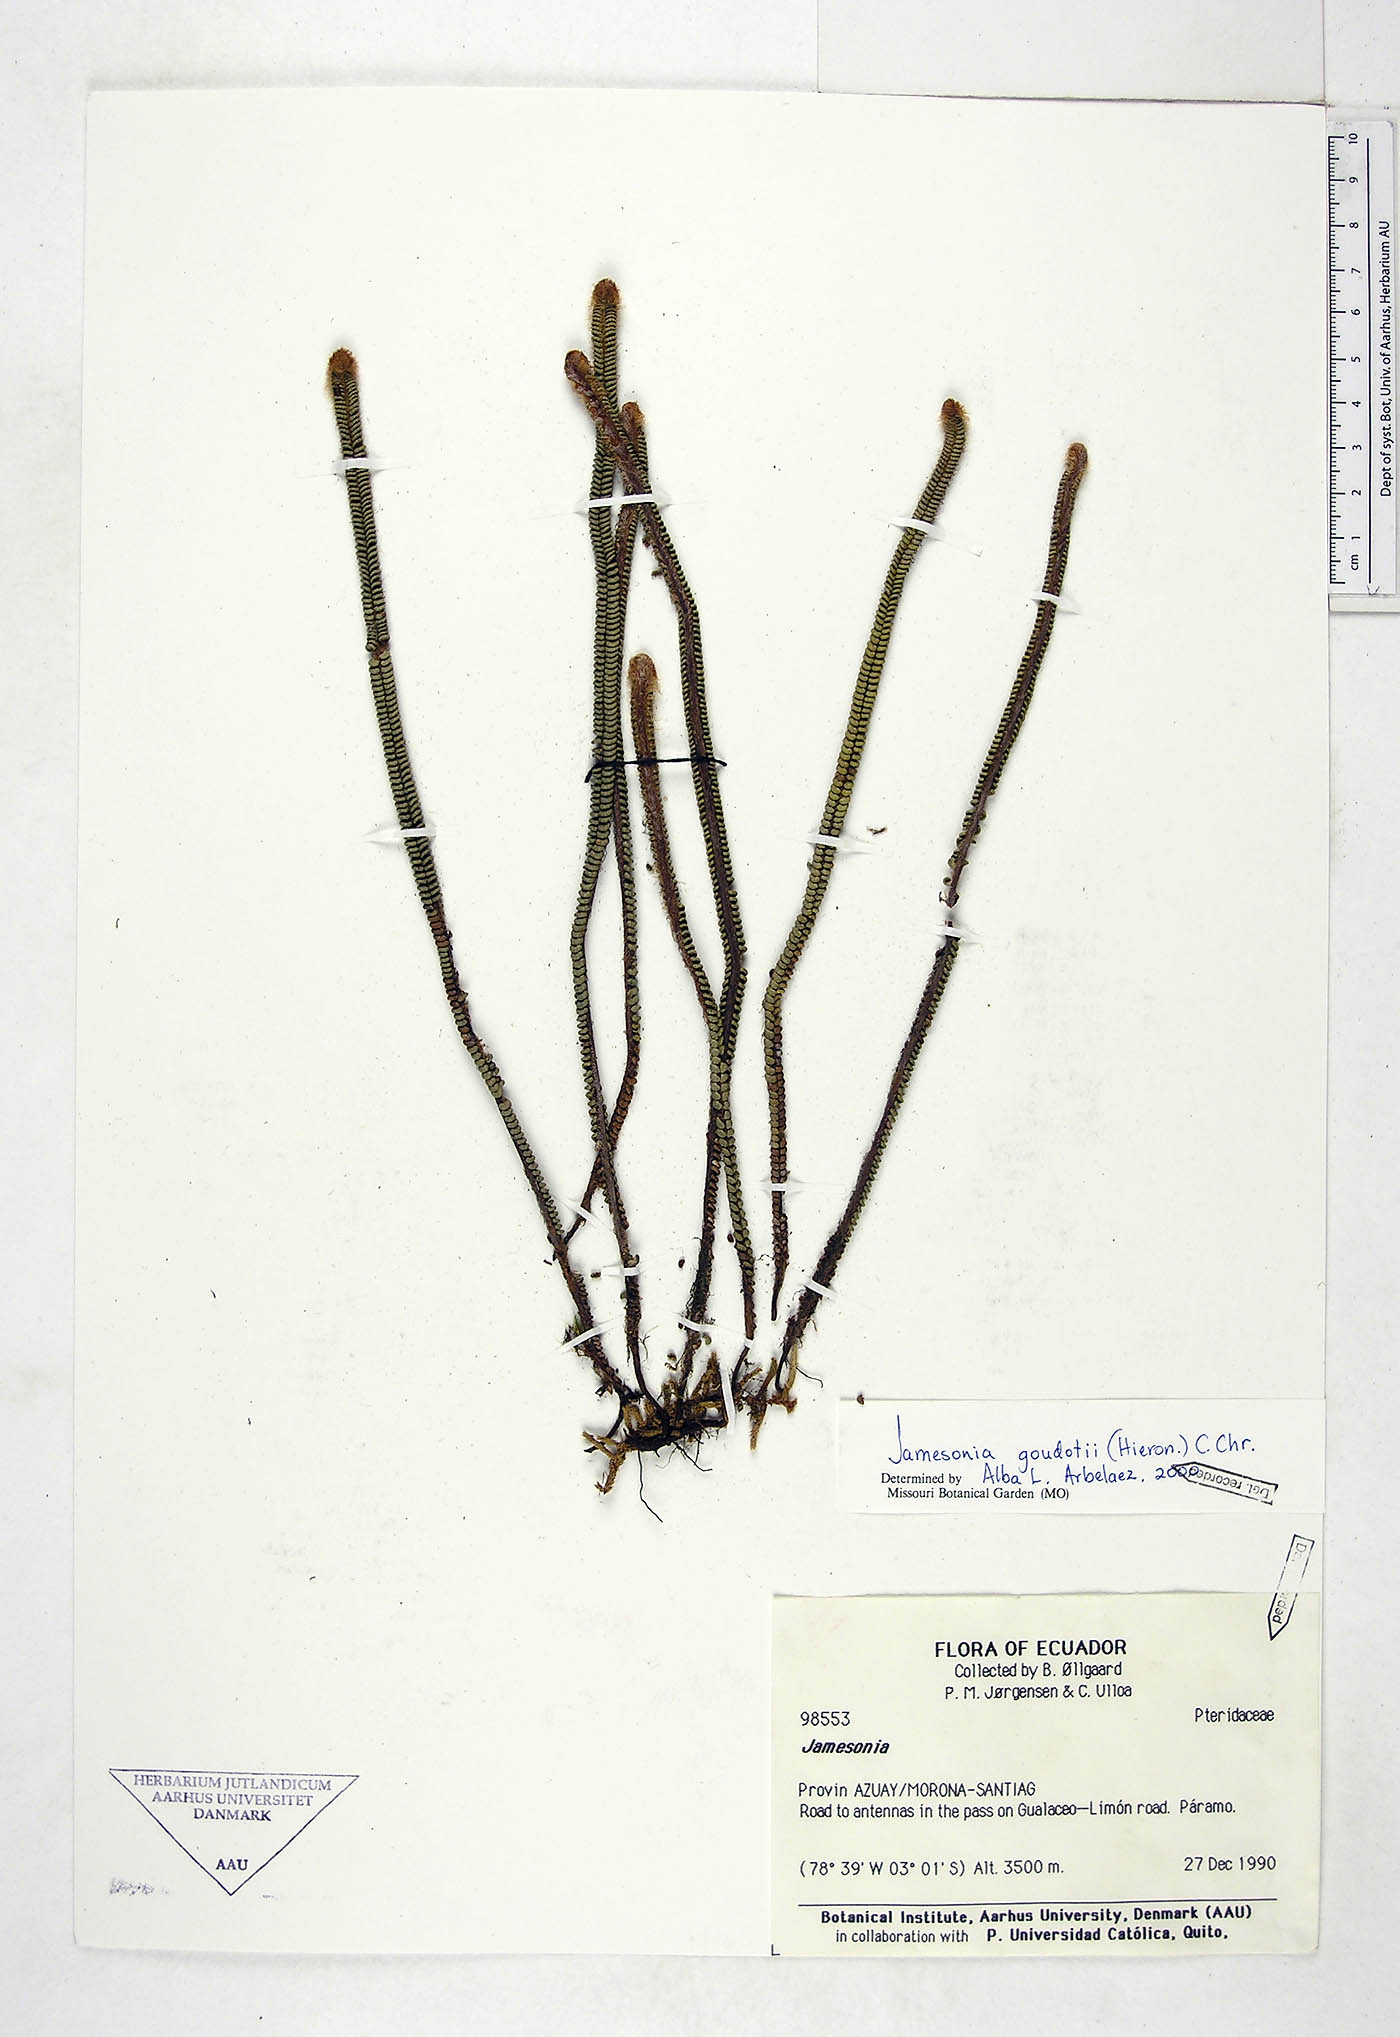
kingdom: Plantae
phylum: Tracheophyta
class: Polypodiopsida
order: Polypodiales
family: Pteridaceae
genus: Jamesonia
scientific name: Jamesonia goudotii
